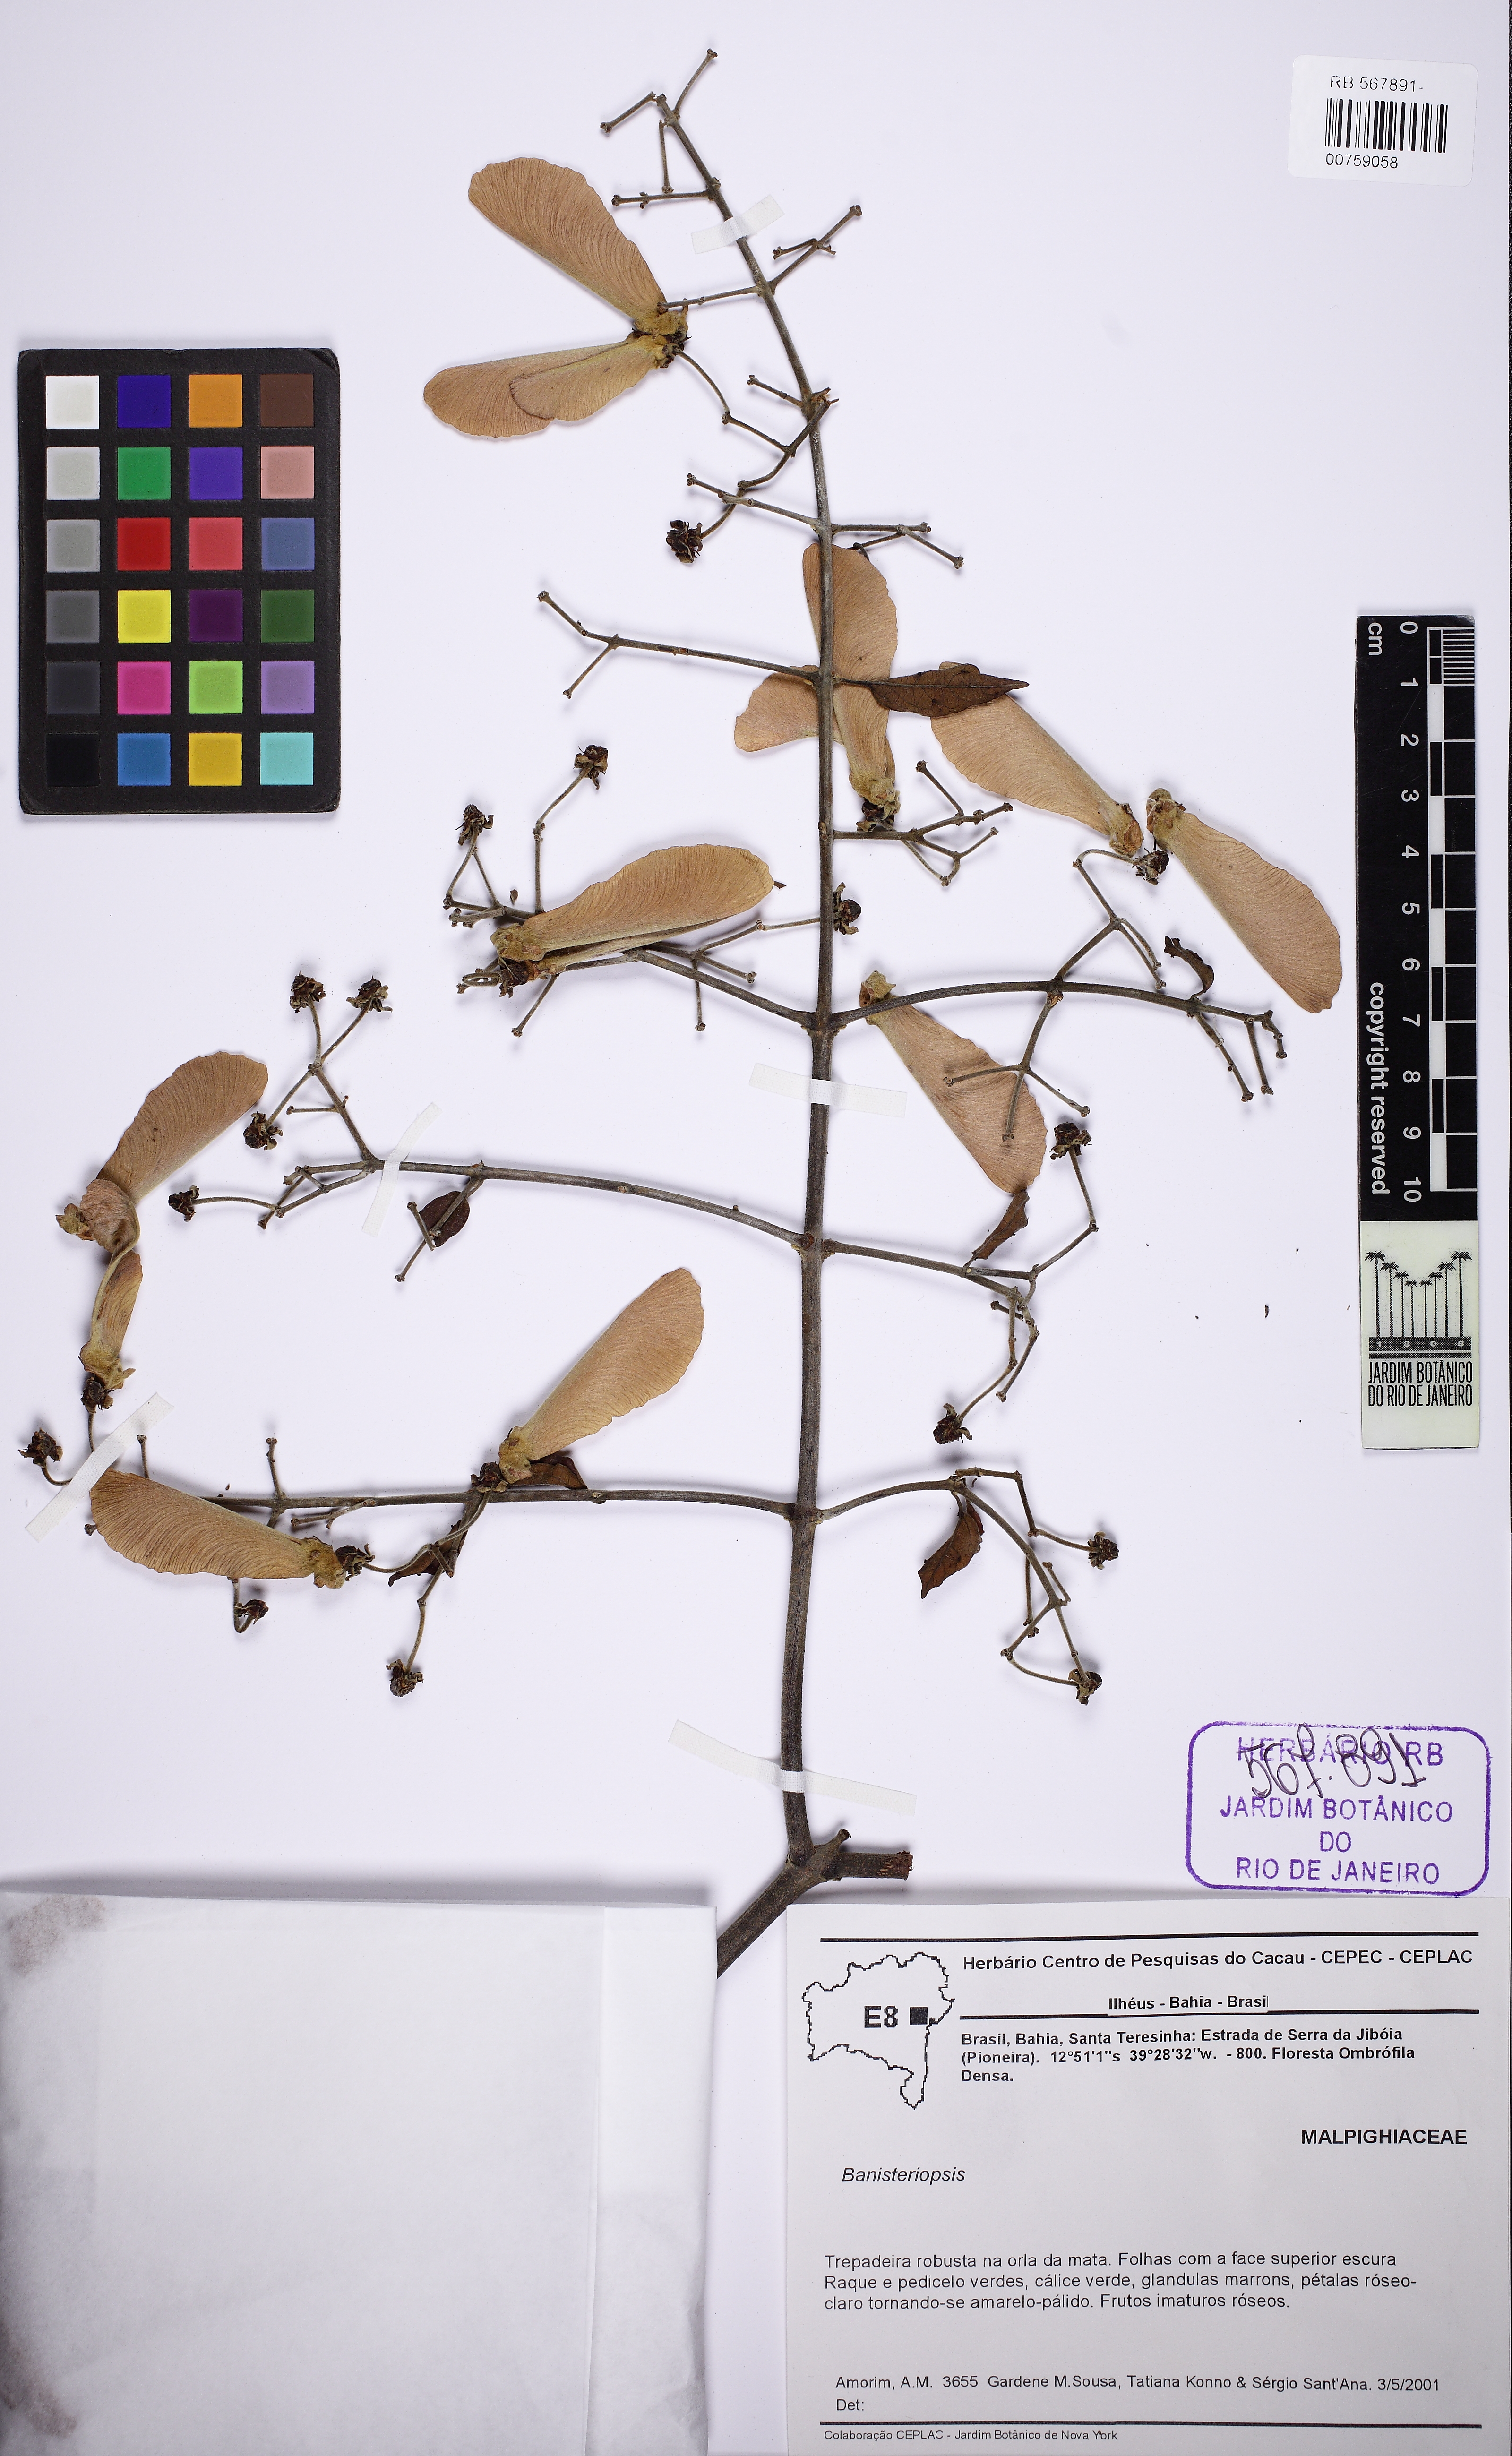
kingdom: Plantae
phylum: Tracheophyta
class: Magnoliopsida
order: Malpighiales
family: Malpighiaceae
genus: Banisteriopsis
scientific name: Banisteriopsis
